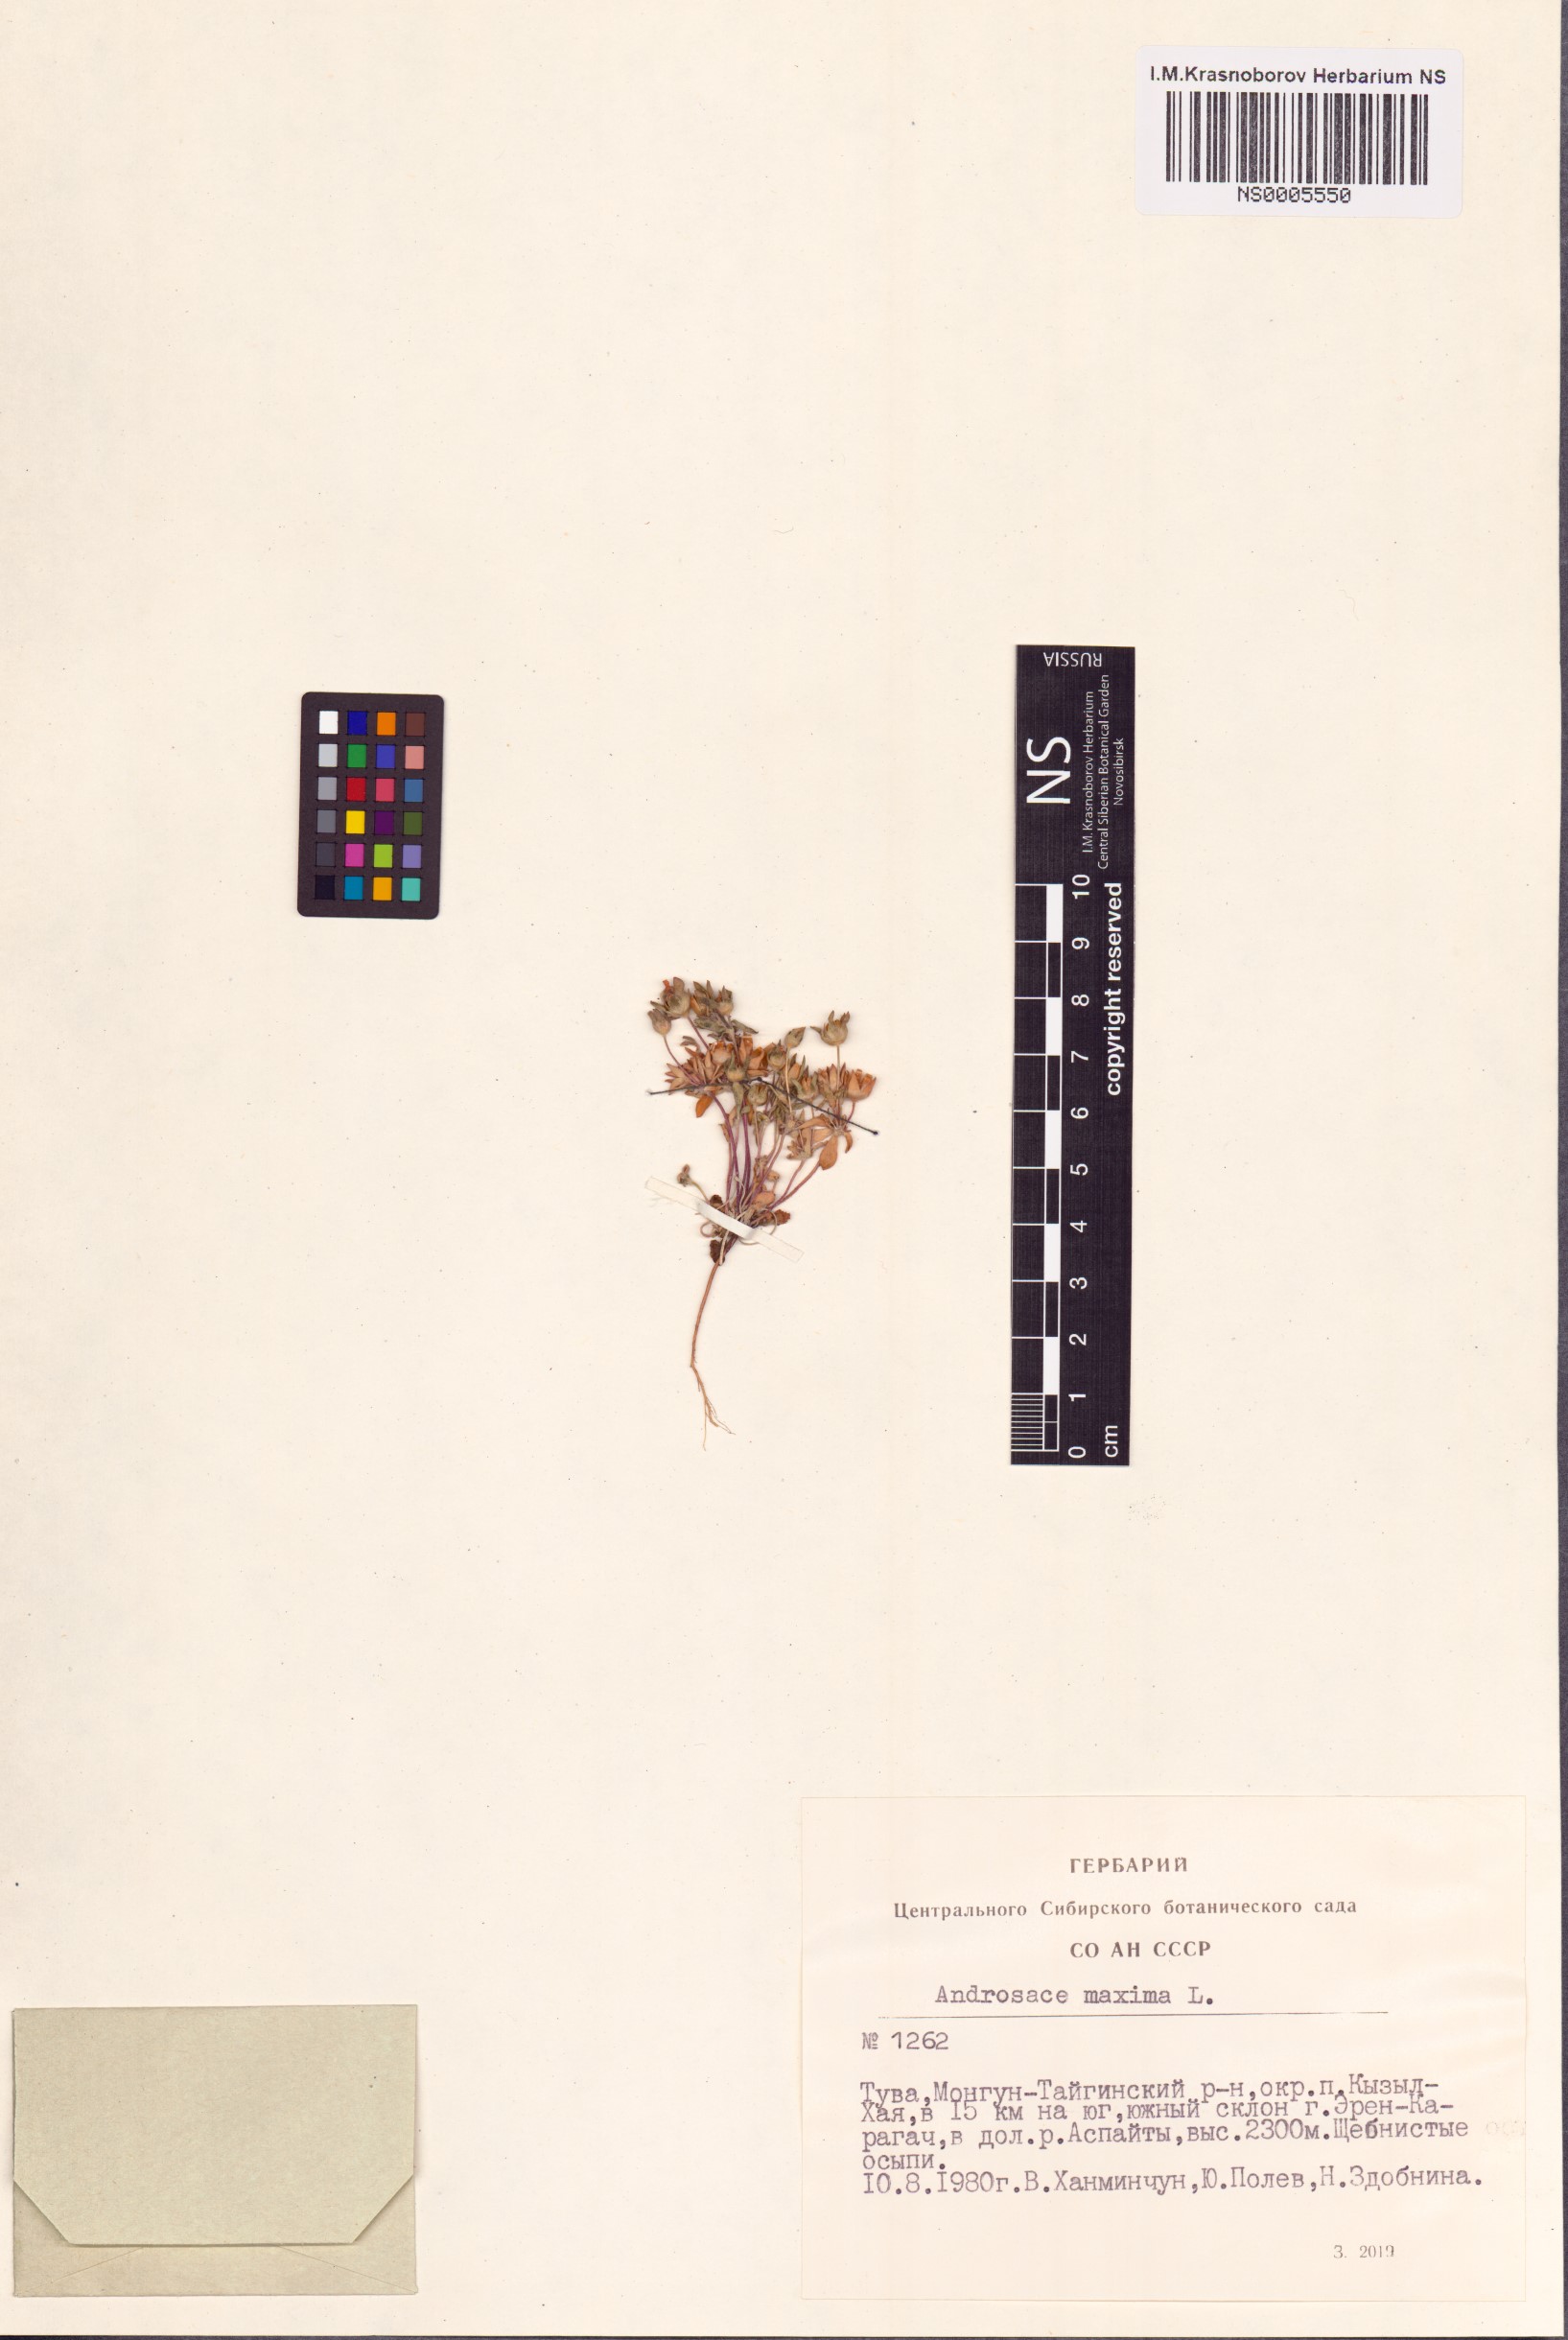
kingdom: Plantae
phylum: Tracheophyta
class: Magnoliopsida
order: Ericales
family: Primulaceae
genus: Androsace
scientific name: Androsace maxima
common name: Annual androsace
